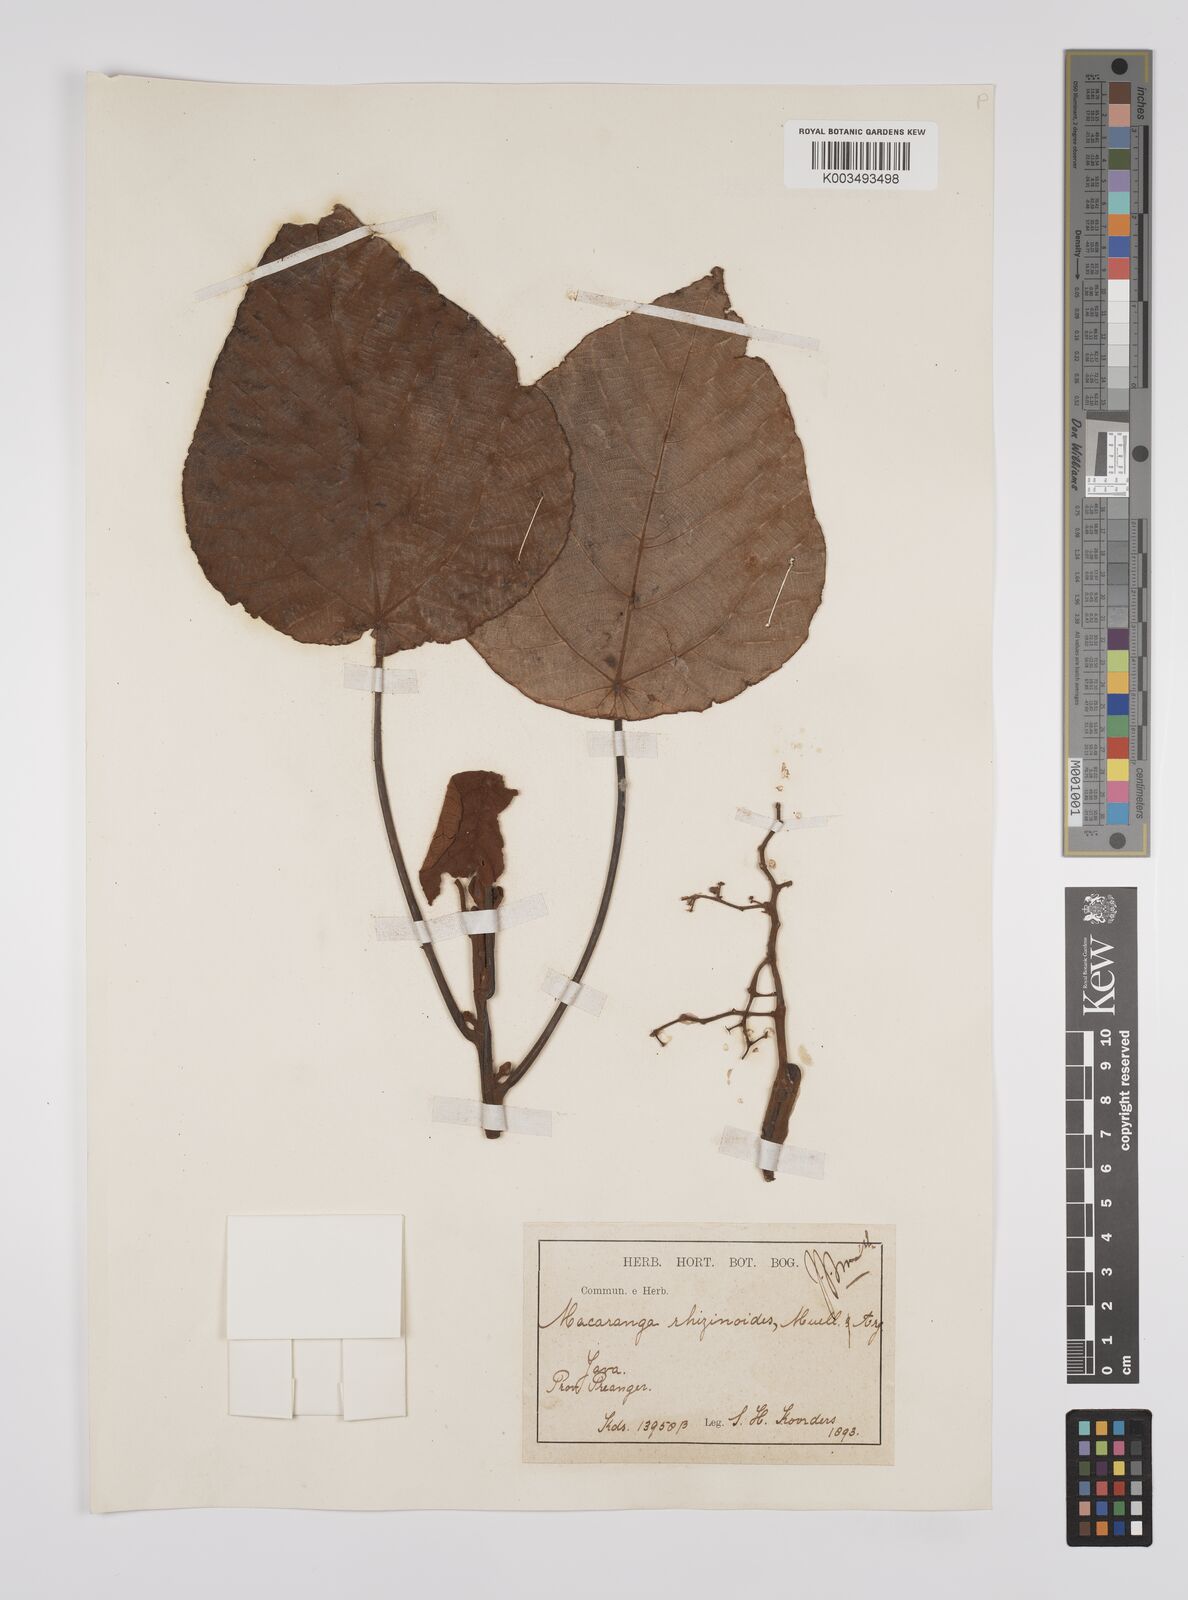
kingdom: Plantae
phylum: Tracheophyta
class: Magnoliopsida
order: Malpighiales
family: Euphorbiaceae
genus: Macaranga
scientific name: Macaranga rhizinoides
